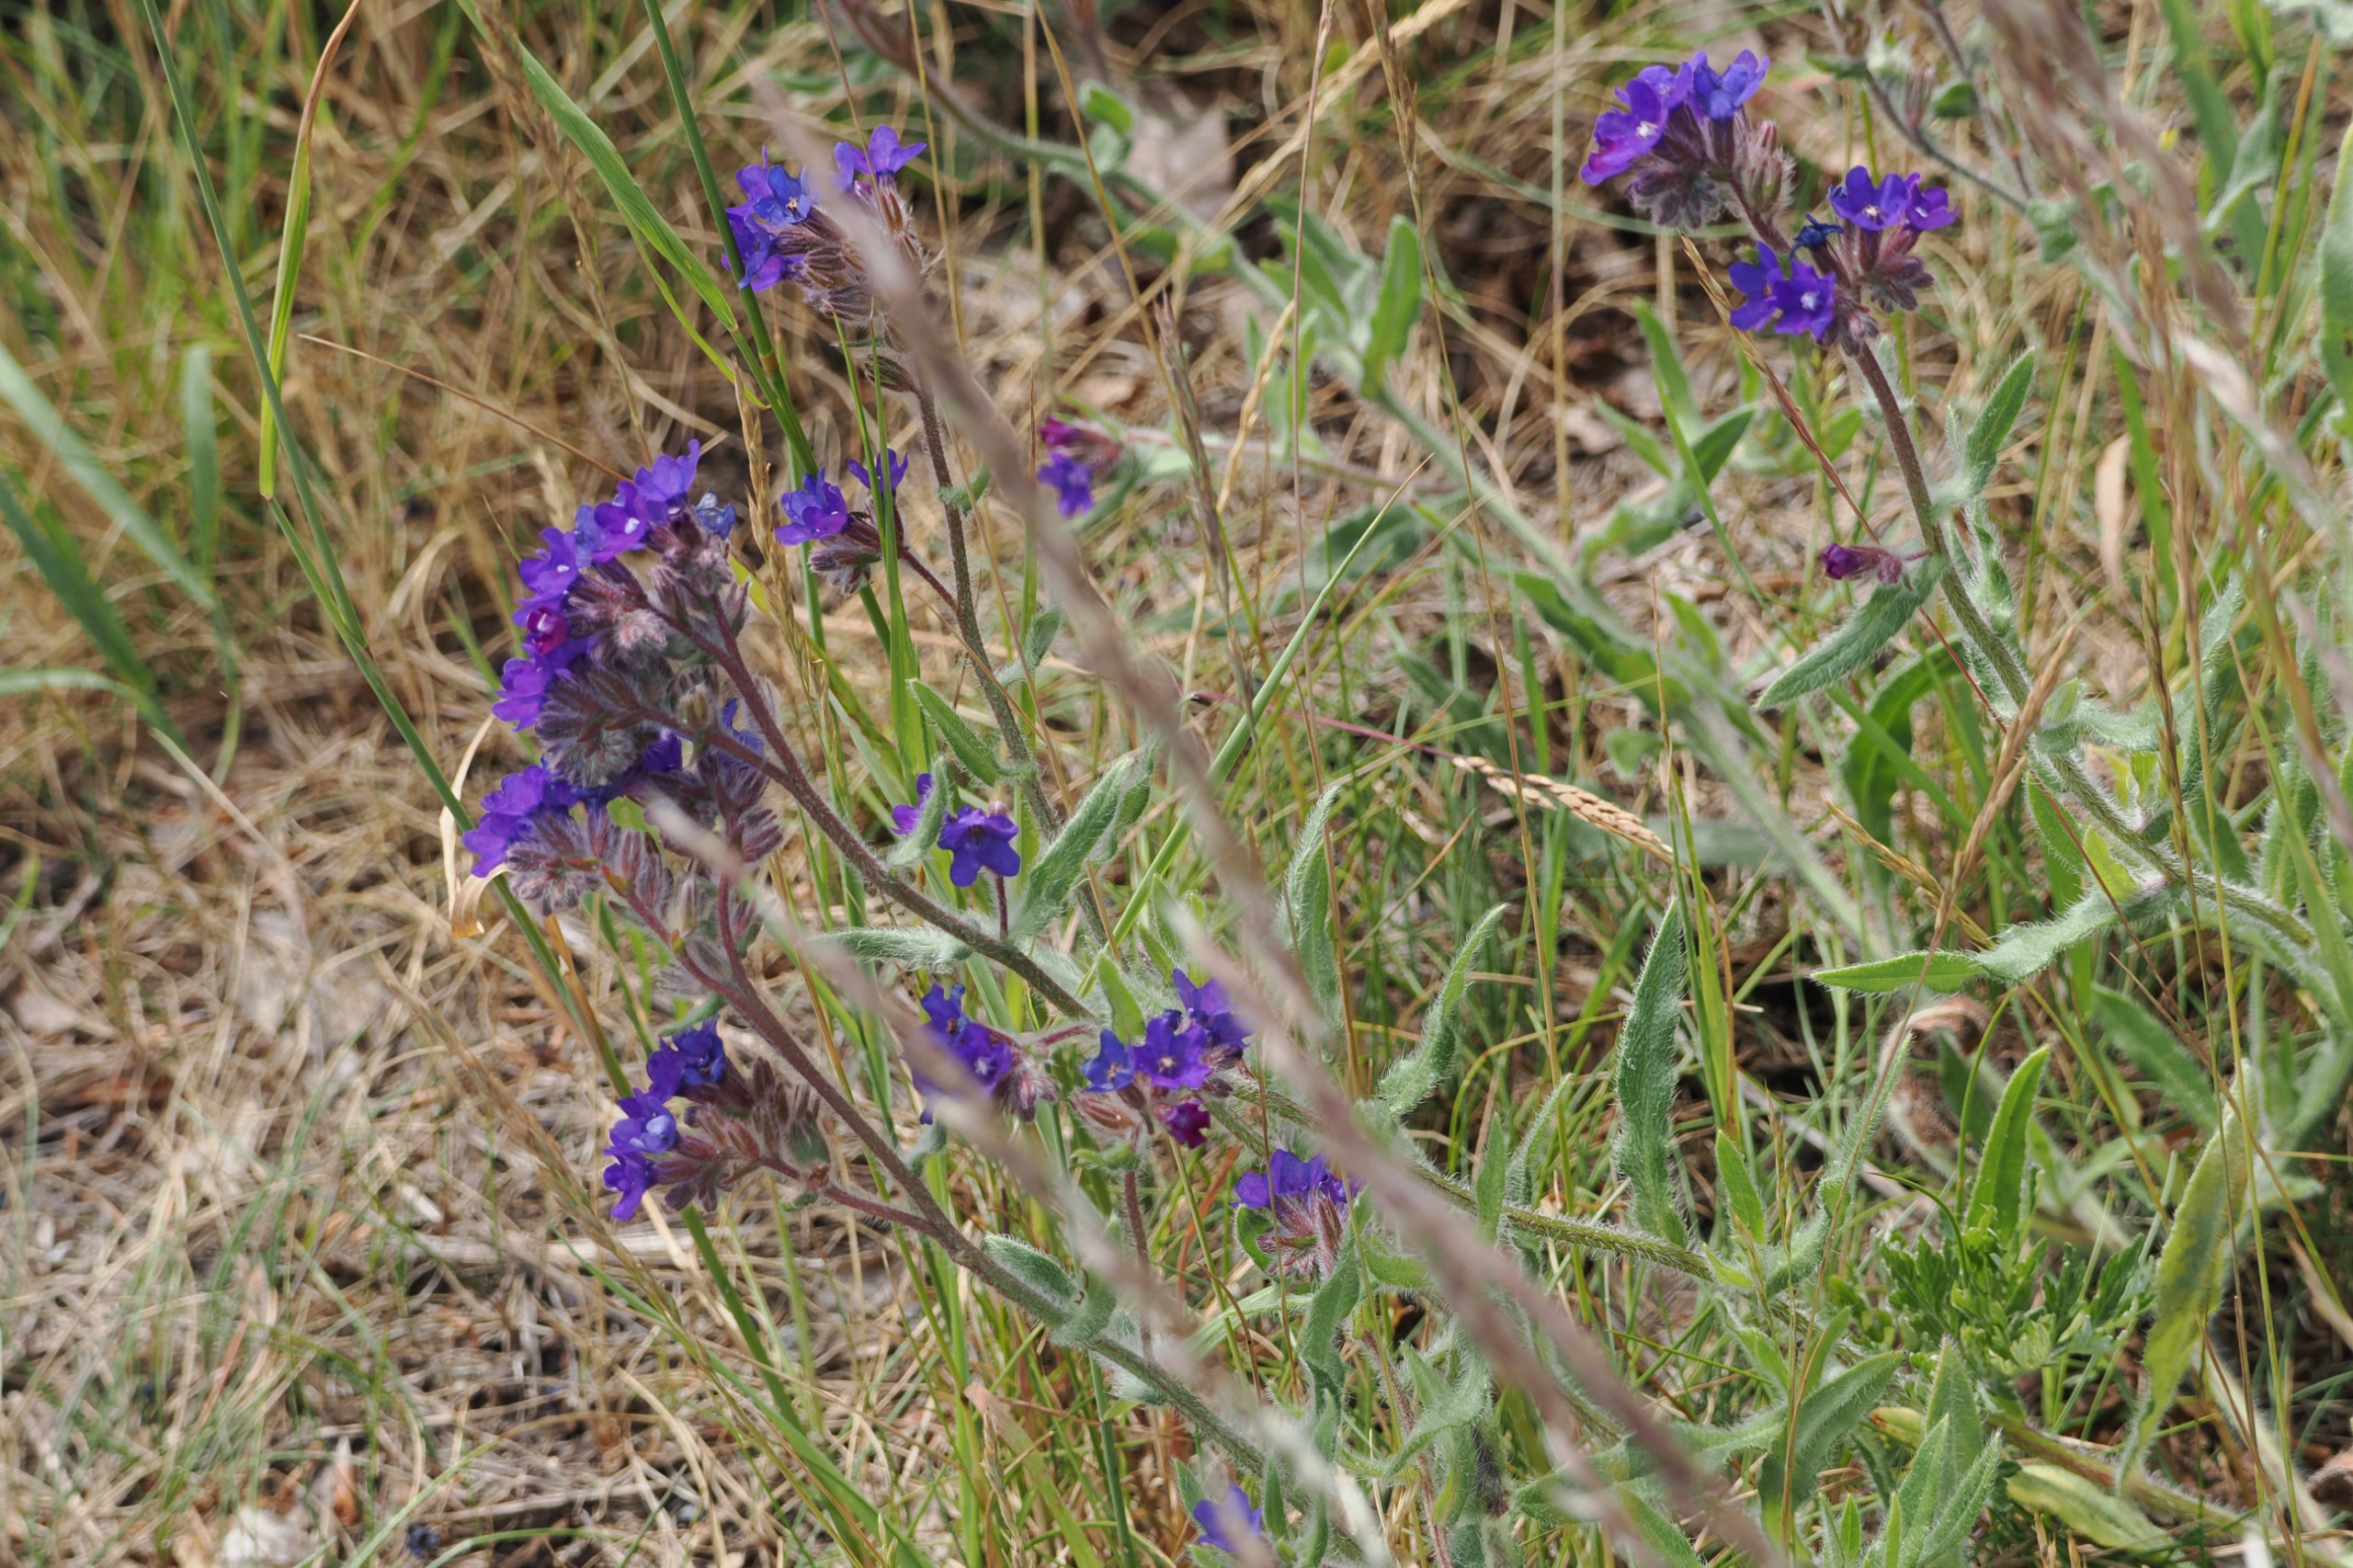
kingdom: Plantae
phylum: Tracheophyta
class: Magnoliopsida
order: Boraginales
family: Boraginaceae
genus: Anchusa
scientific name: Anchusa officinalis
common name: Læge-oksetunge
